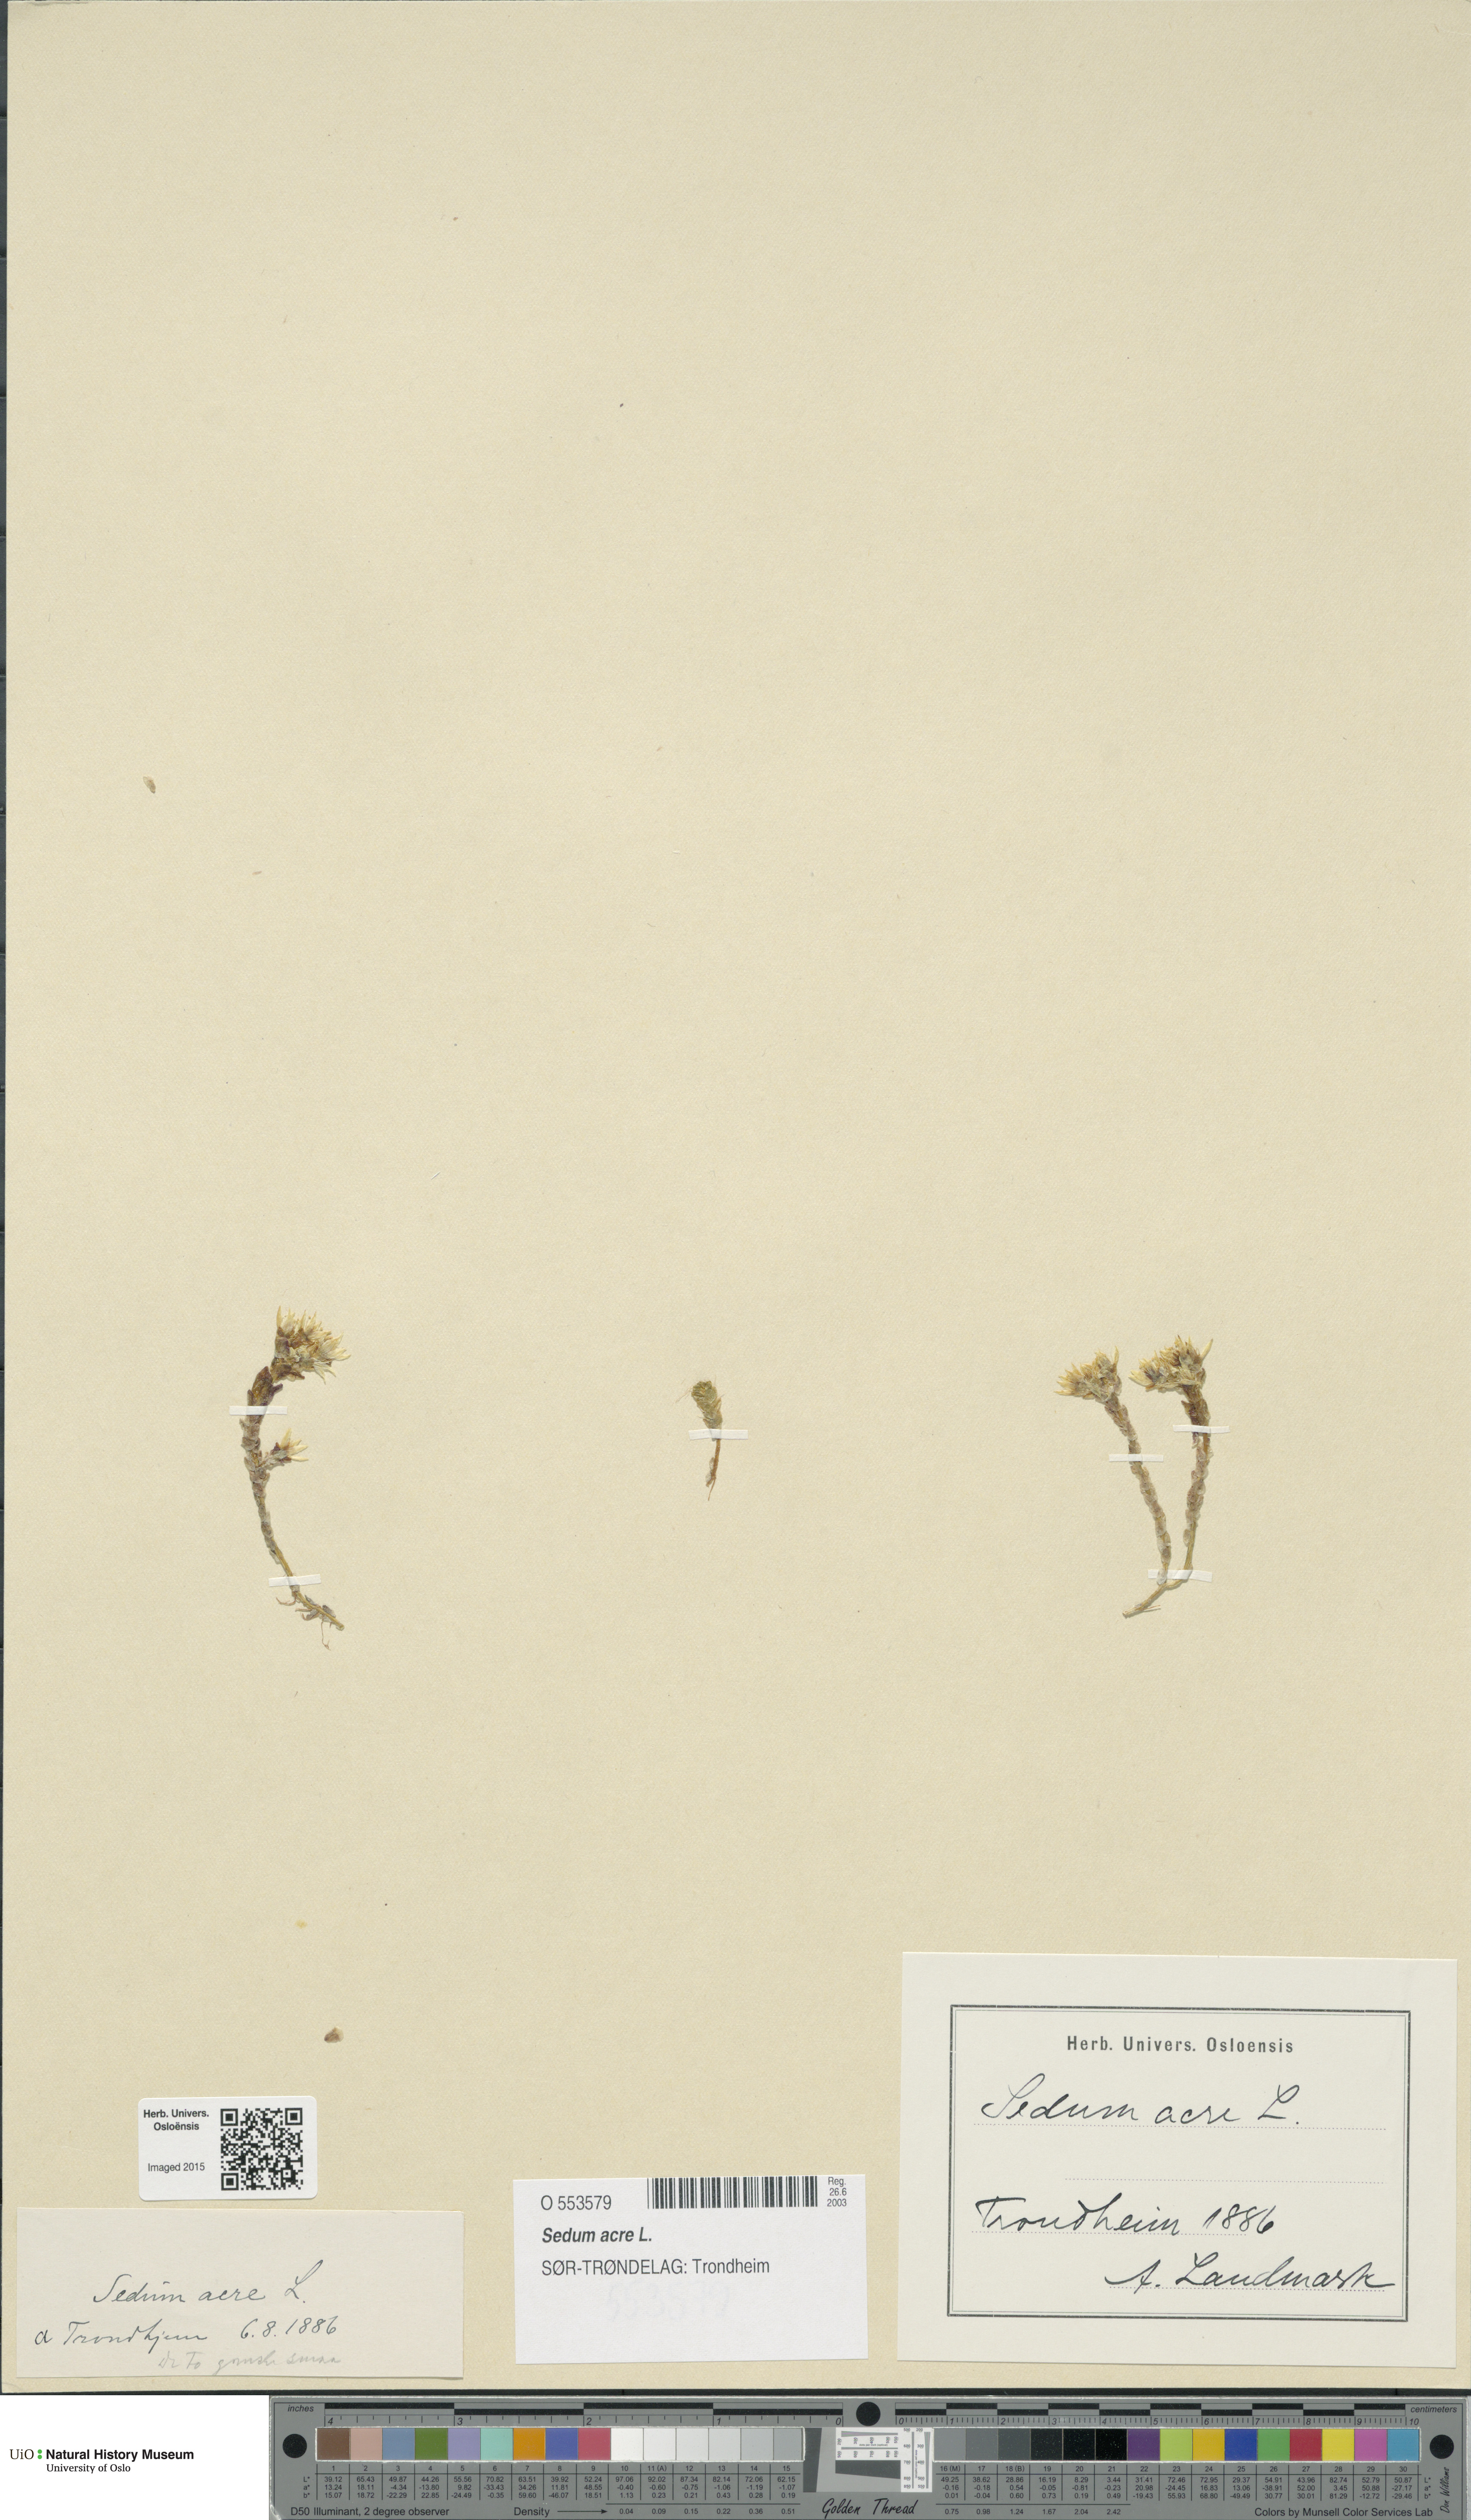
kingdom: Plantae
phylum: Tracheophyta
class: Magnoliopsida
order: Saxifragales
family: Crassulaceae
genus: Sedum
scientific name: Sedum acre
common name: Biting stonecrop
